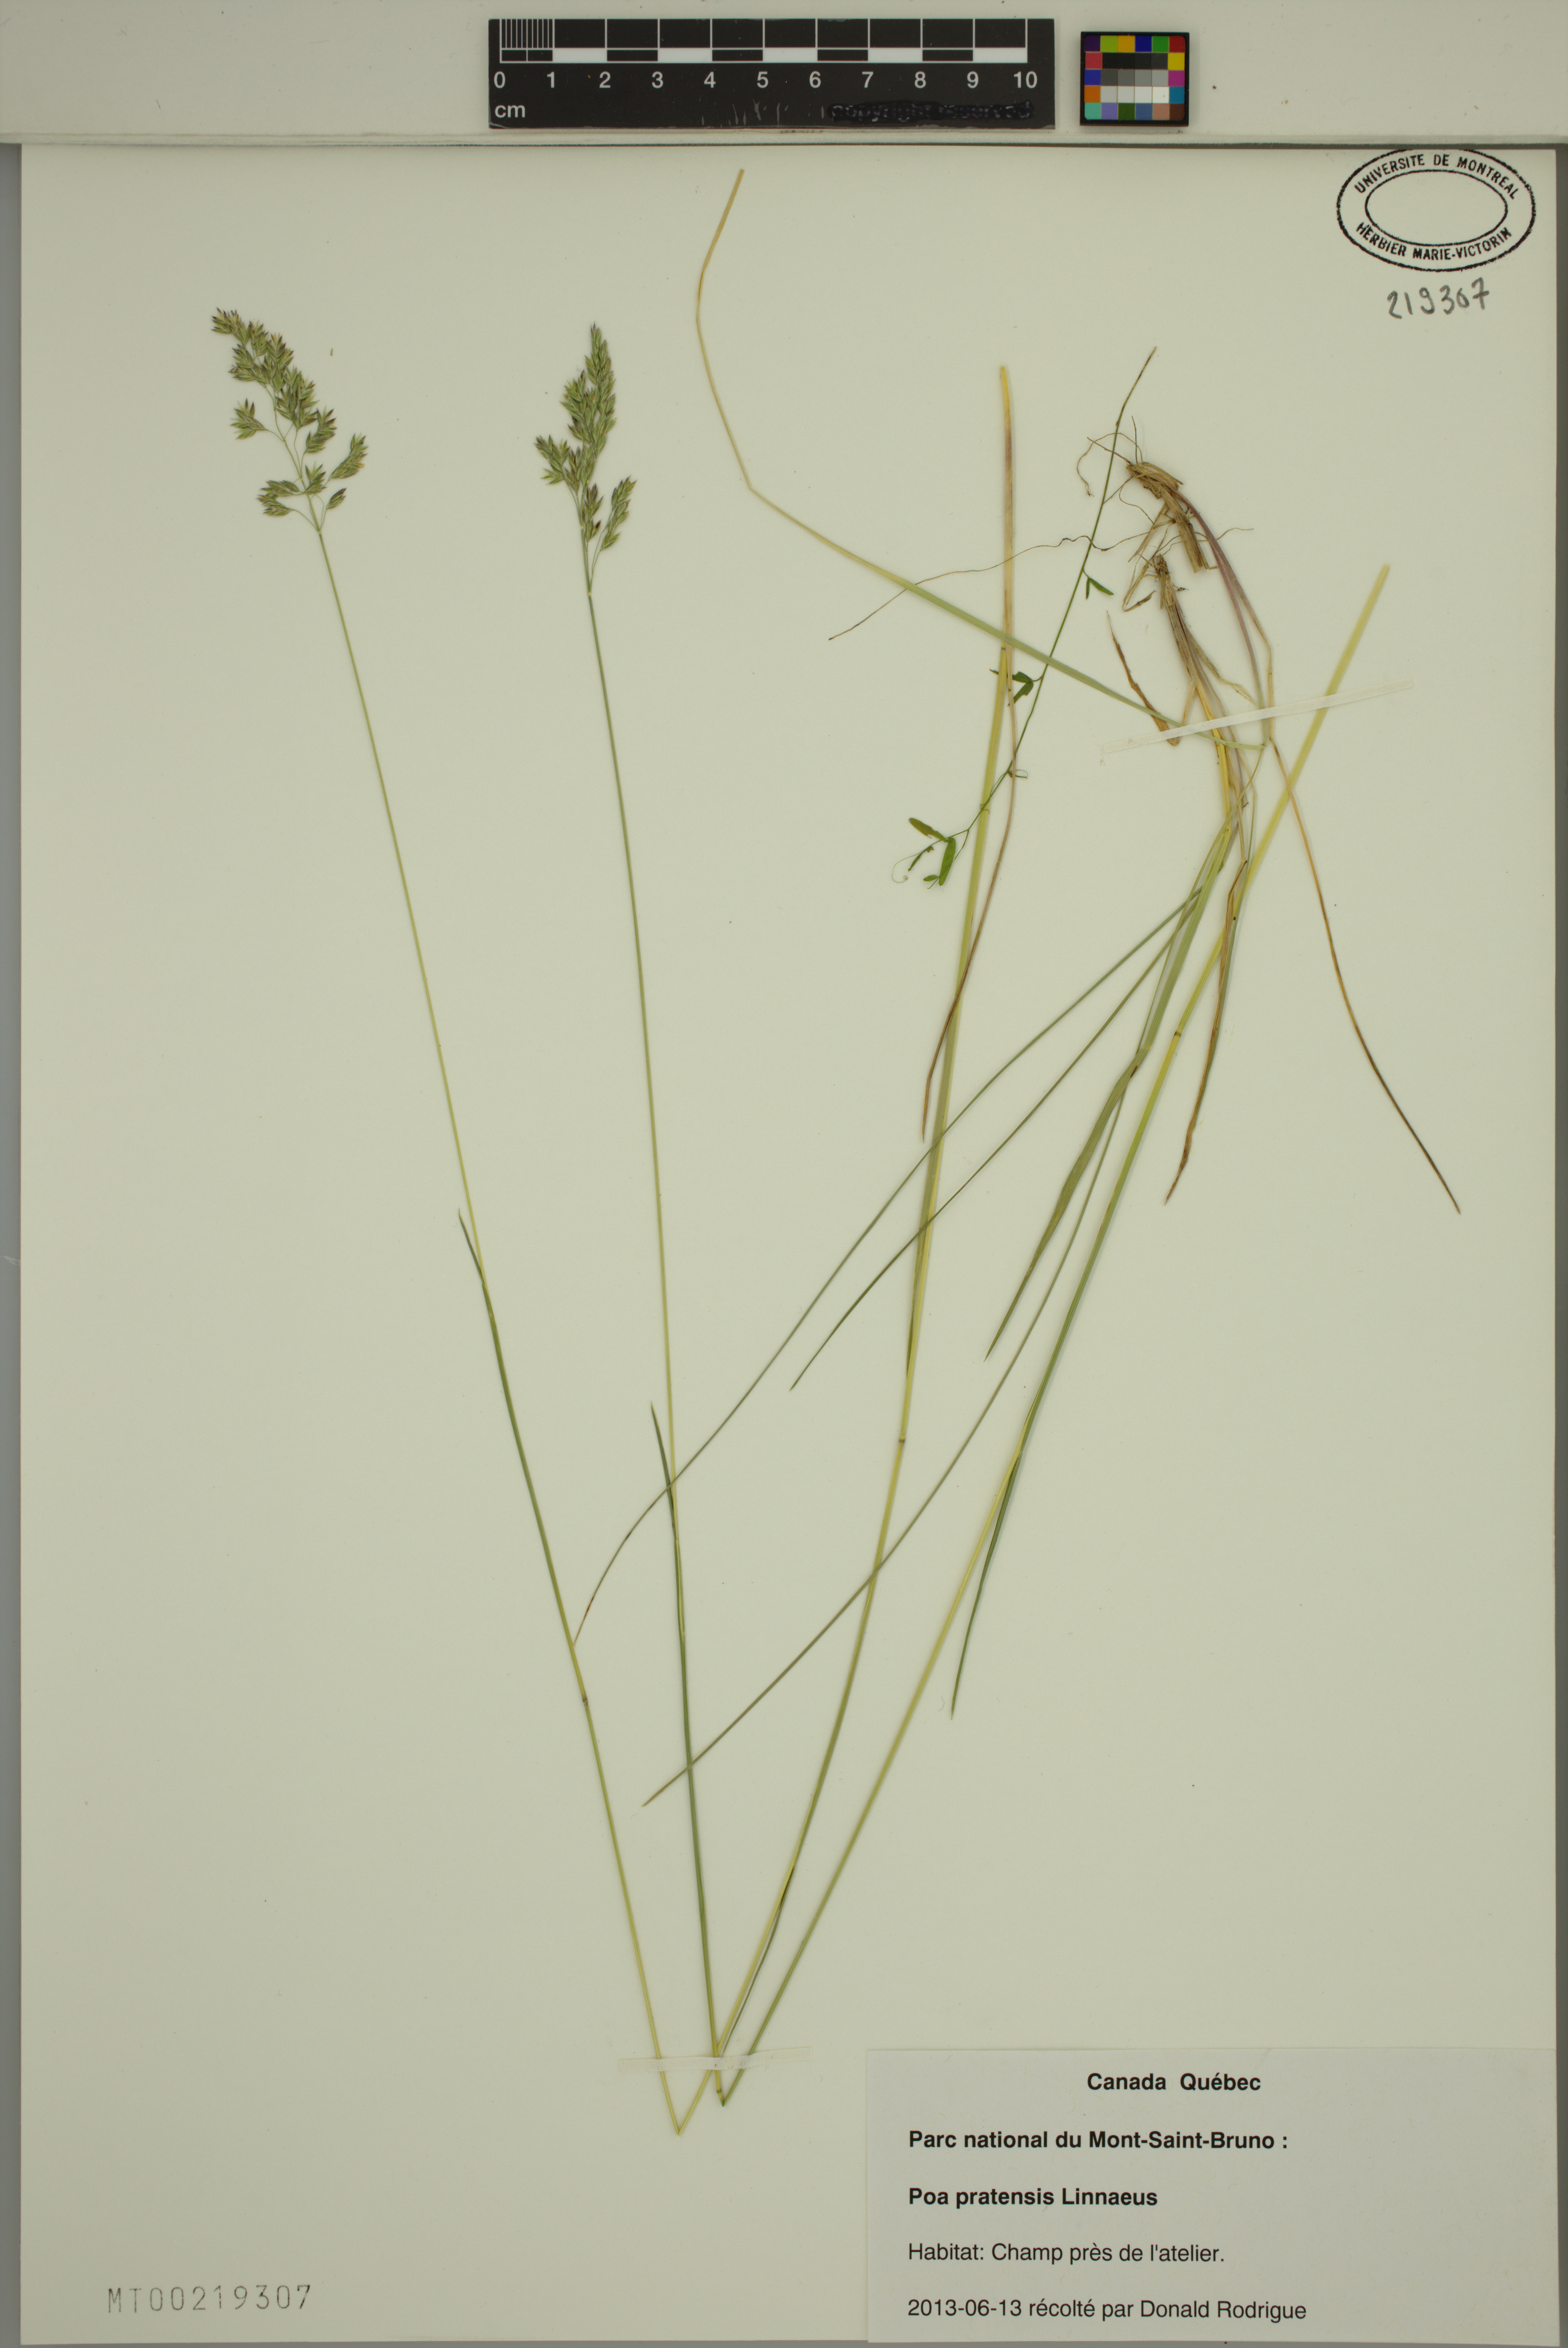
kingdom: Plantae
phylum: Tracheophyta
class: Liliopsida
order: Poales
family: Poaceae
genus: Poa
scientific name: Poa pratensis
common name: Kentucky bluegrass
